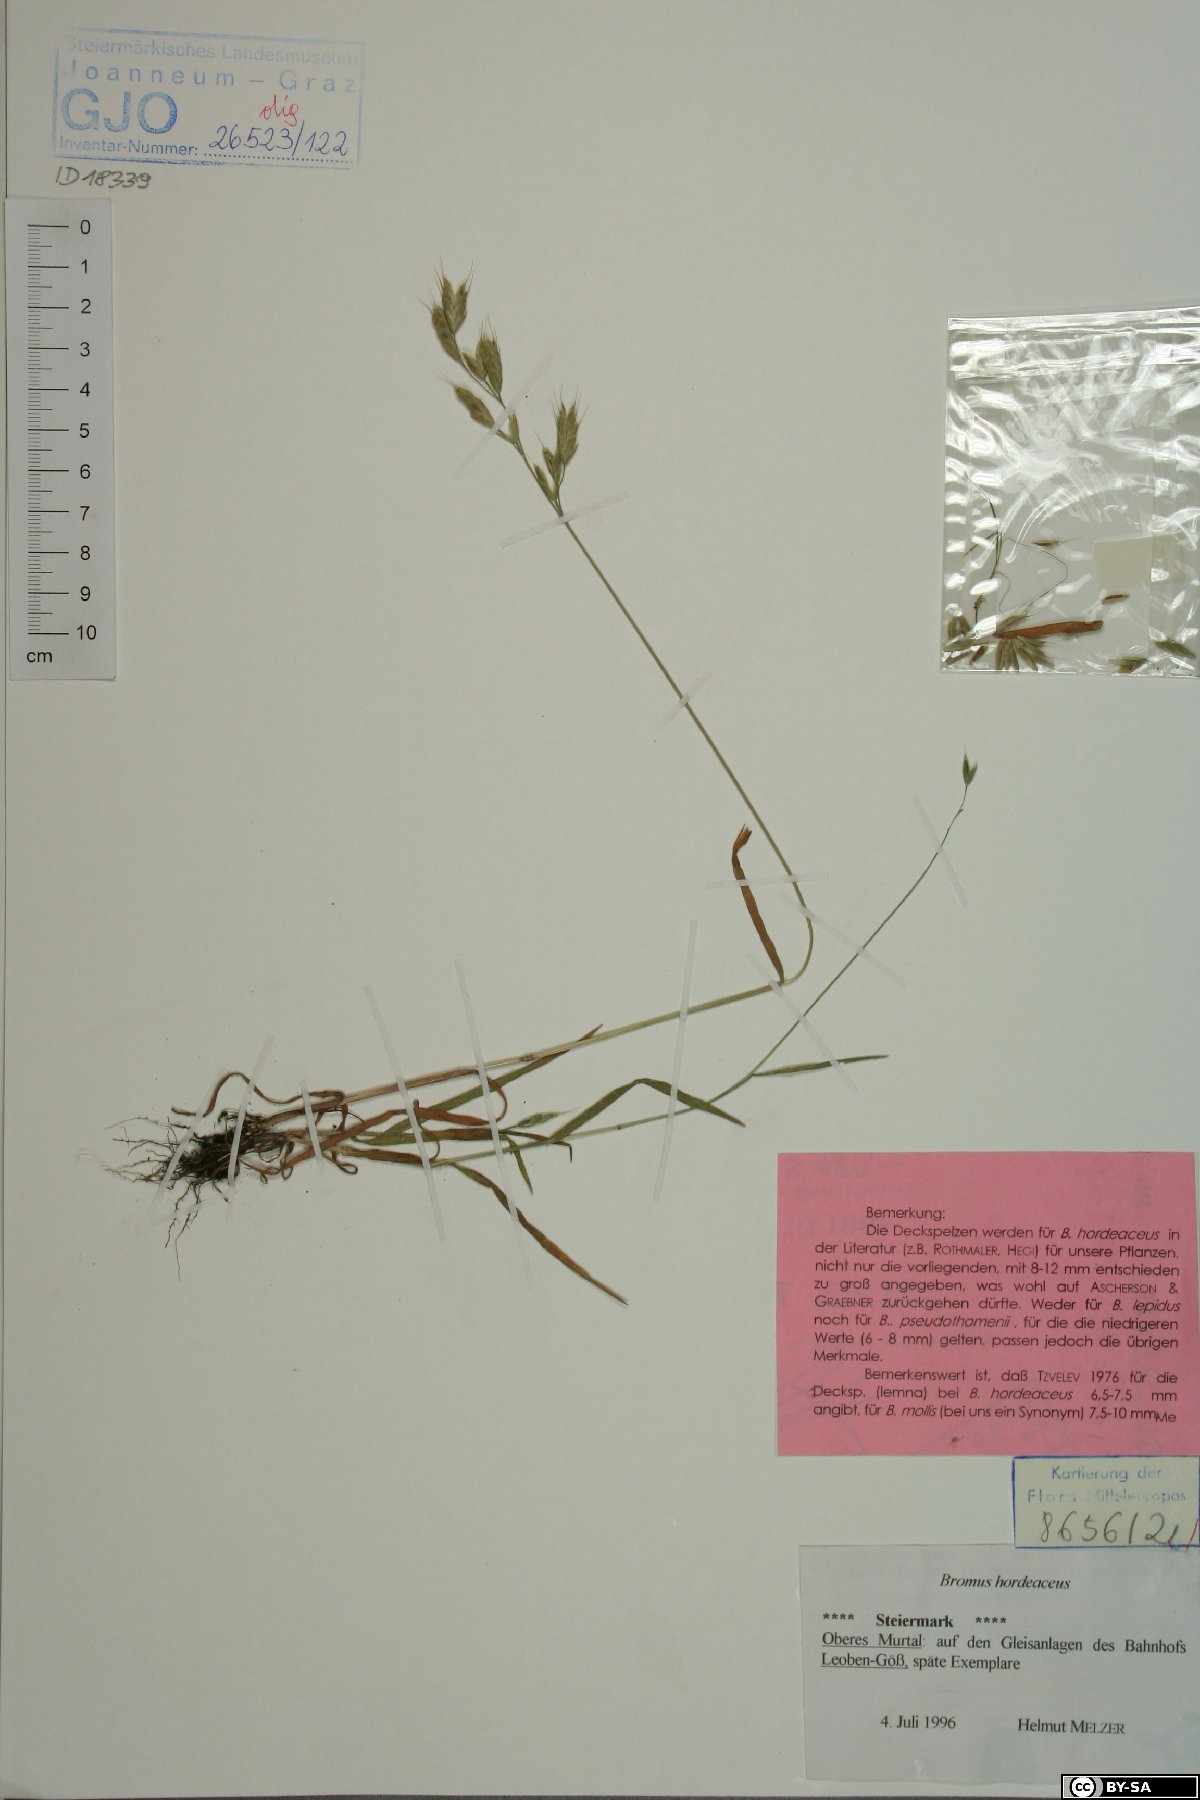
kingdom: Plantae
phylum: Tracheophyta
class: Liliopsida
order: Poales
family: Poaceae
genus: Bromus
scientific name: Bromus hordeaceus
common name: Soft brome
